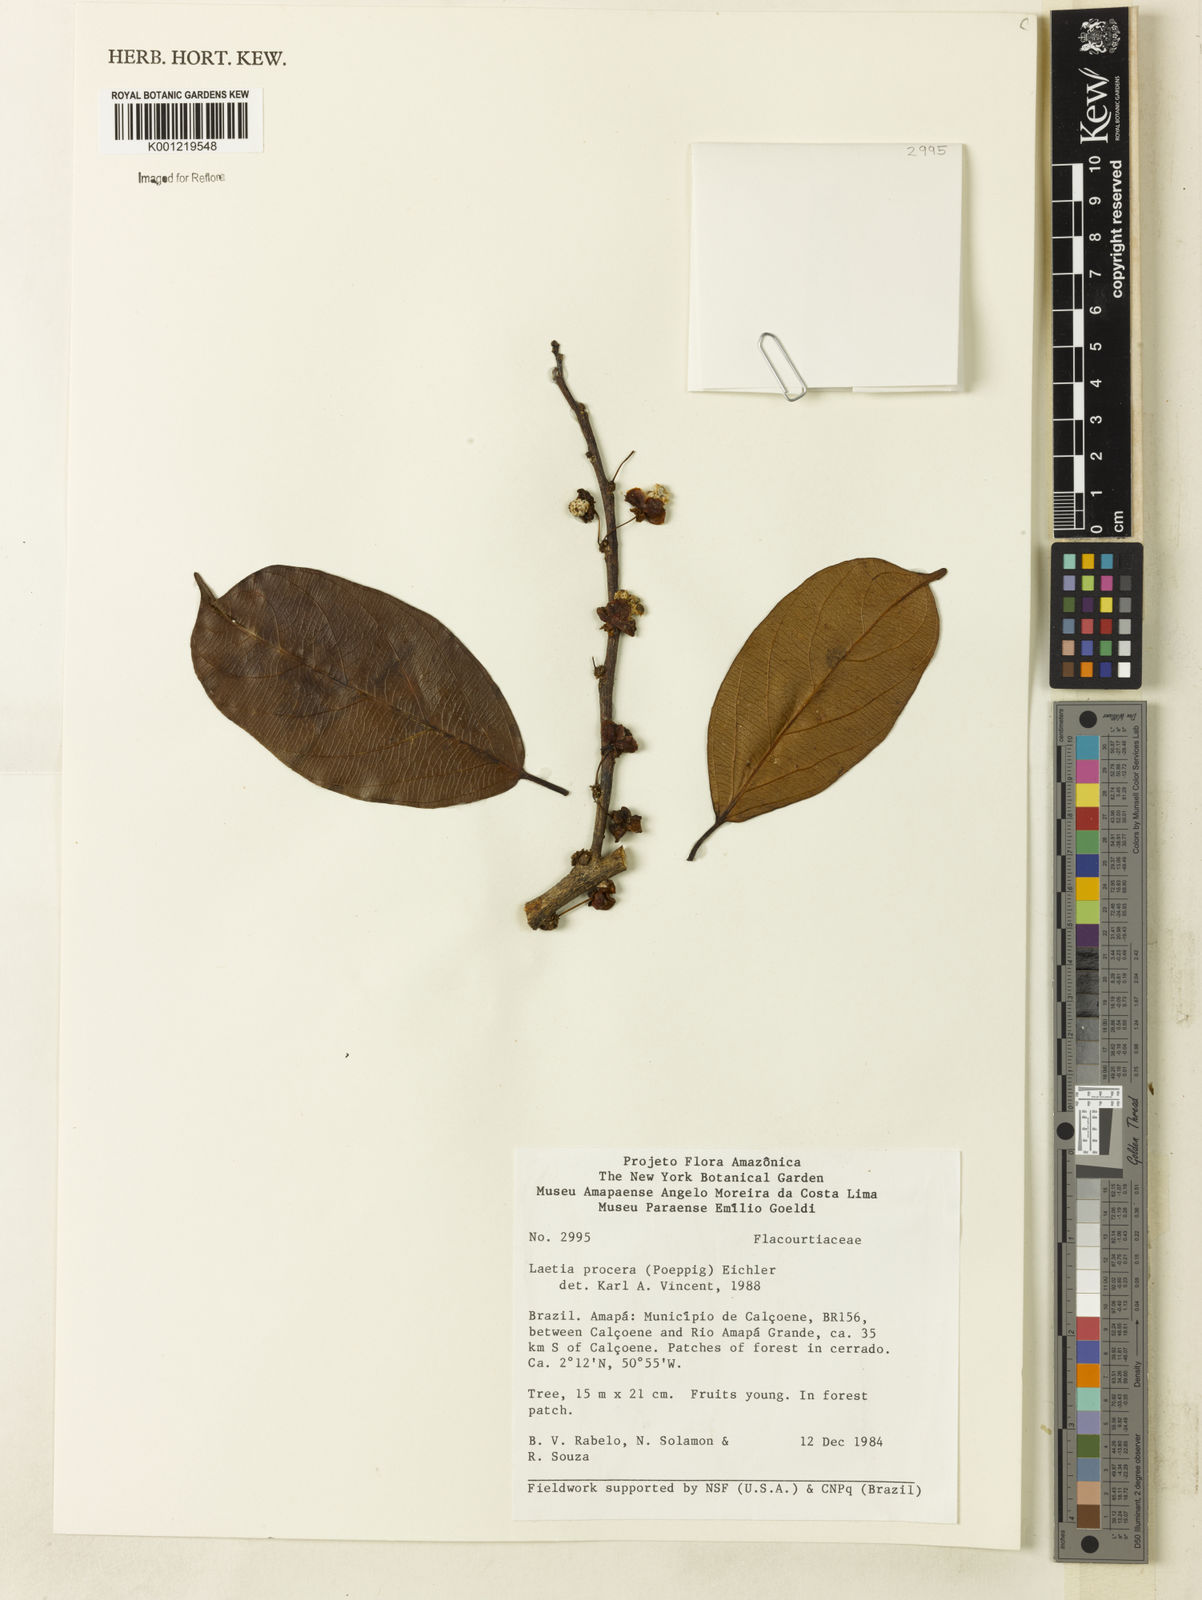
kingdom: Plantae
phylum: Tracheophyta
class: Magnoliopsida
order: Malpighiales
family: Salicaceae
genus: Casearia
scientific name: Casearia bicolor
